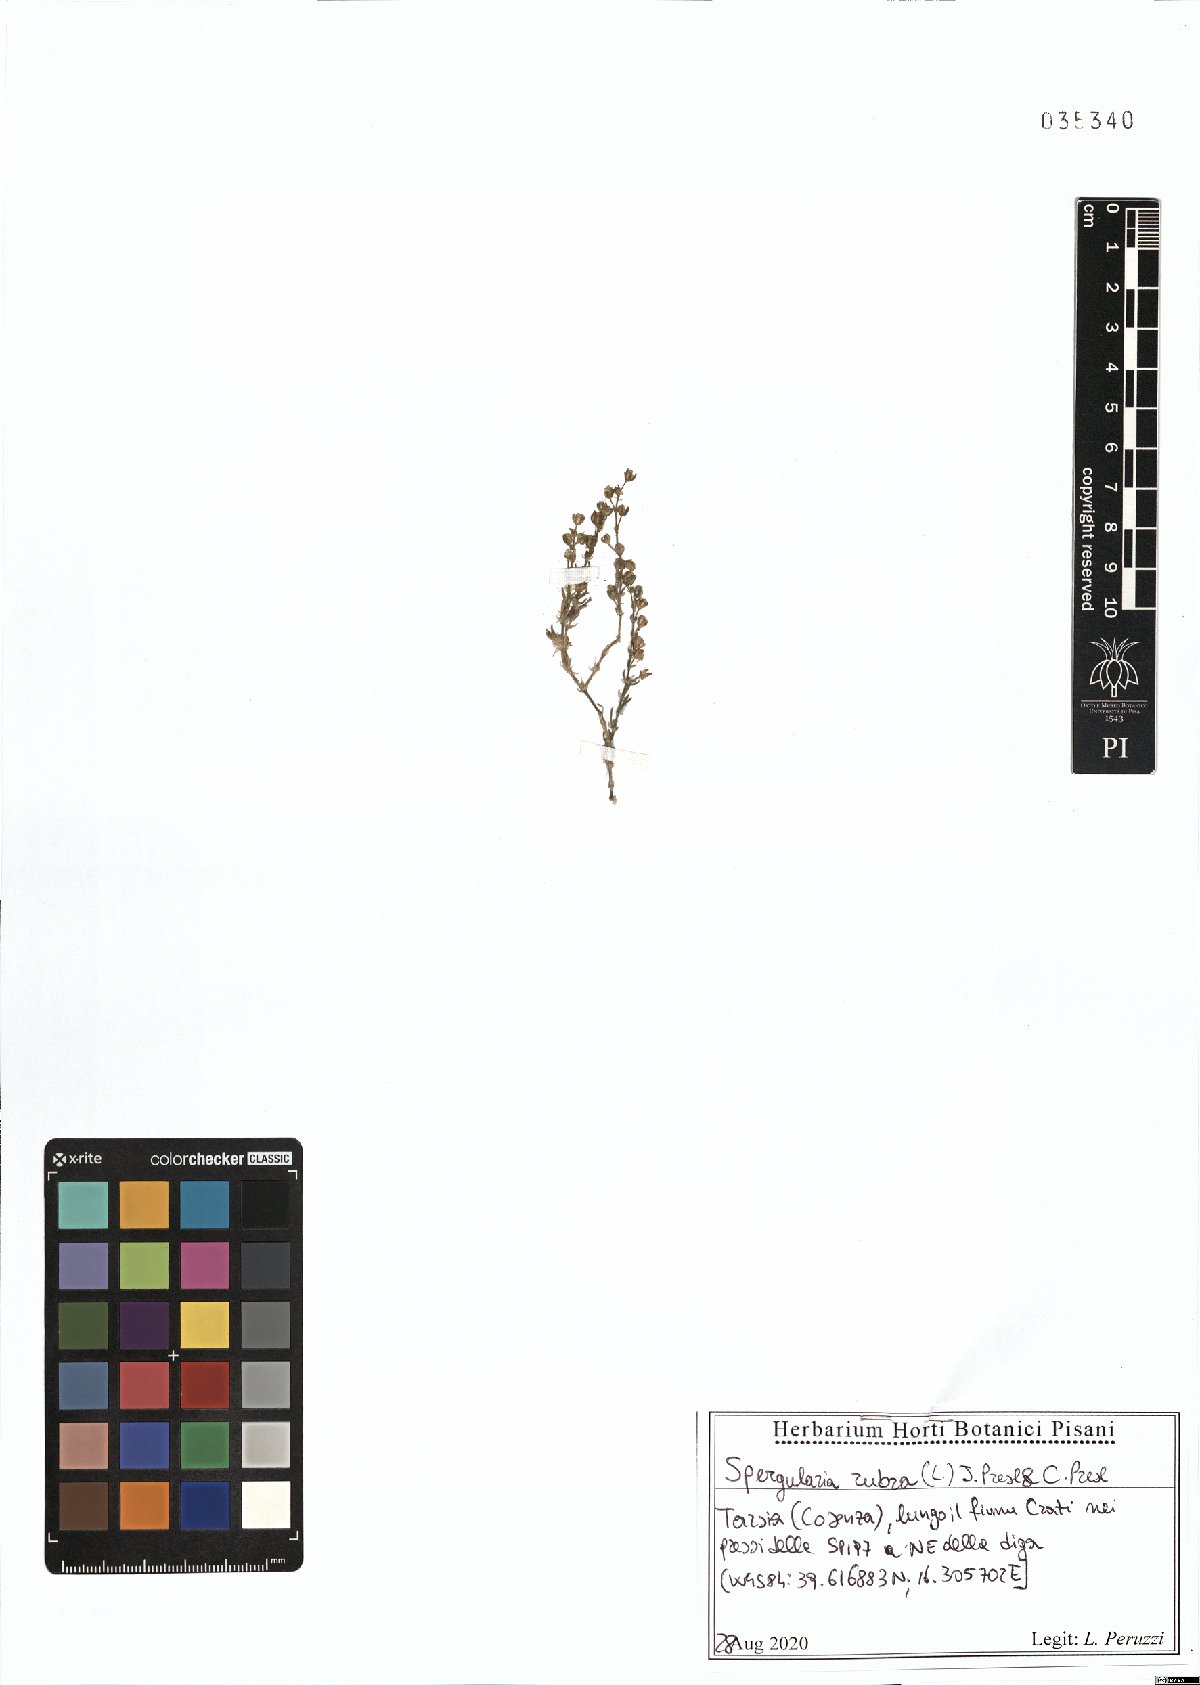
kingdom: Plantae
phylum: Tracheophyta
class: Magnoliopsida
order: Caryophyllales
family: Caryophyllaceae
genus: Spergularia
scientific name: Spergularia rubra
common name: Red sand-spurrey
